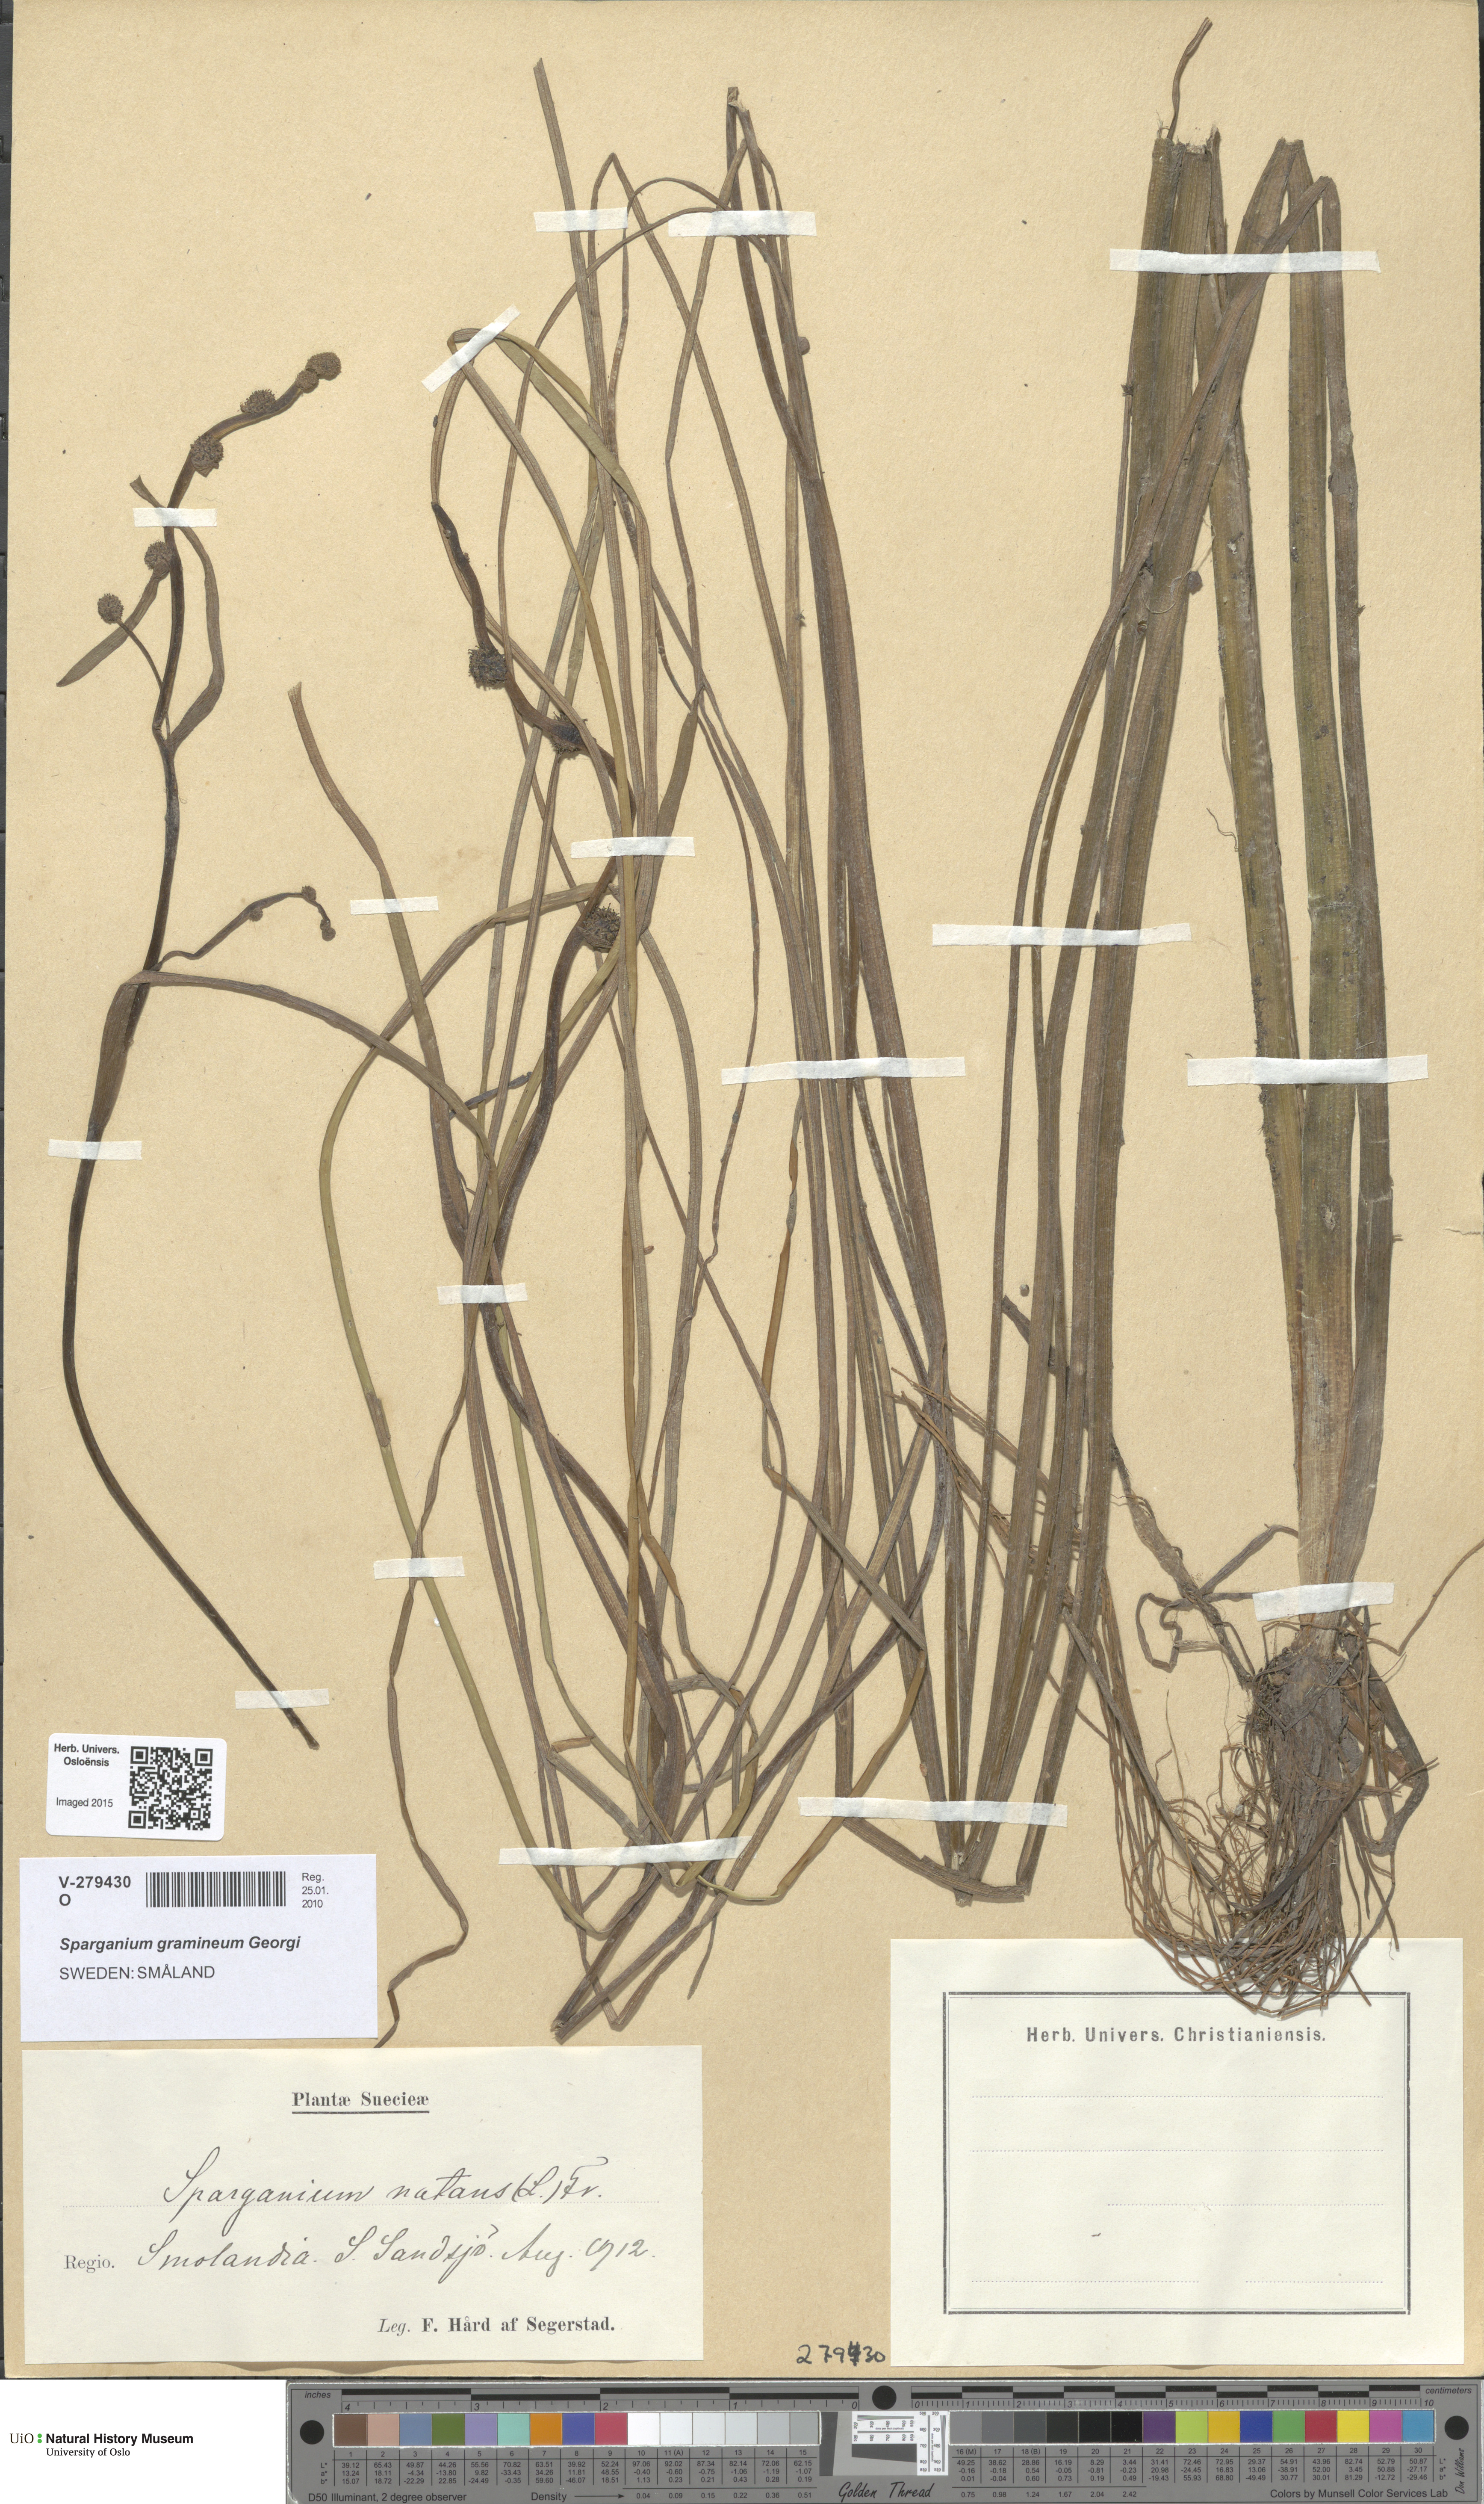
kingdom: Plantae
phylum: Tracheophyta
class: Liliopsida
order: Poales
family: Typhaceae
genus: Sparganium
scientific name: Sparganium gramineum
